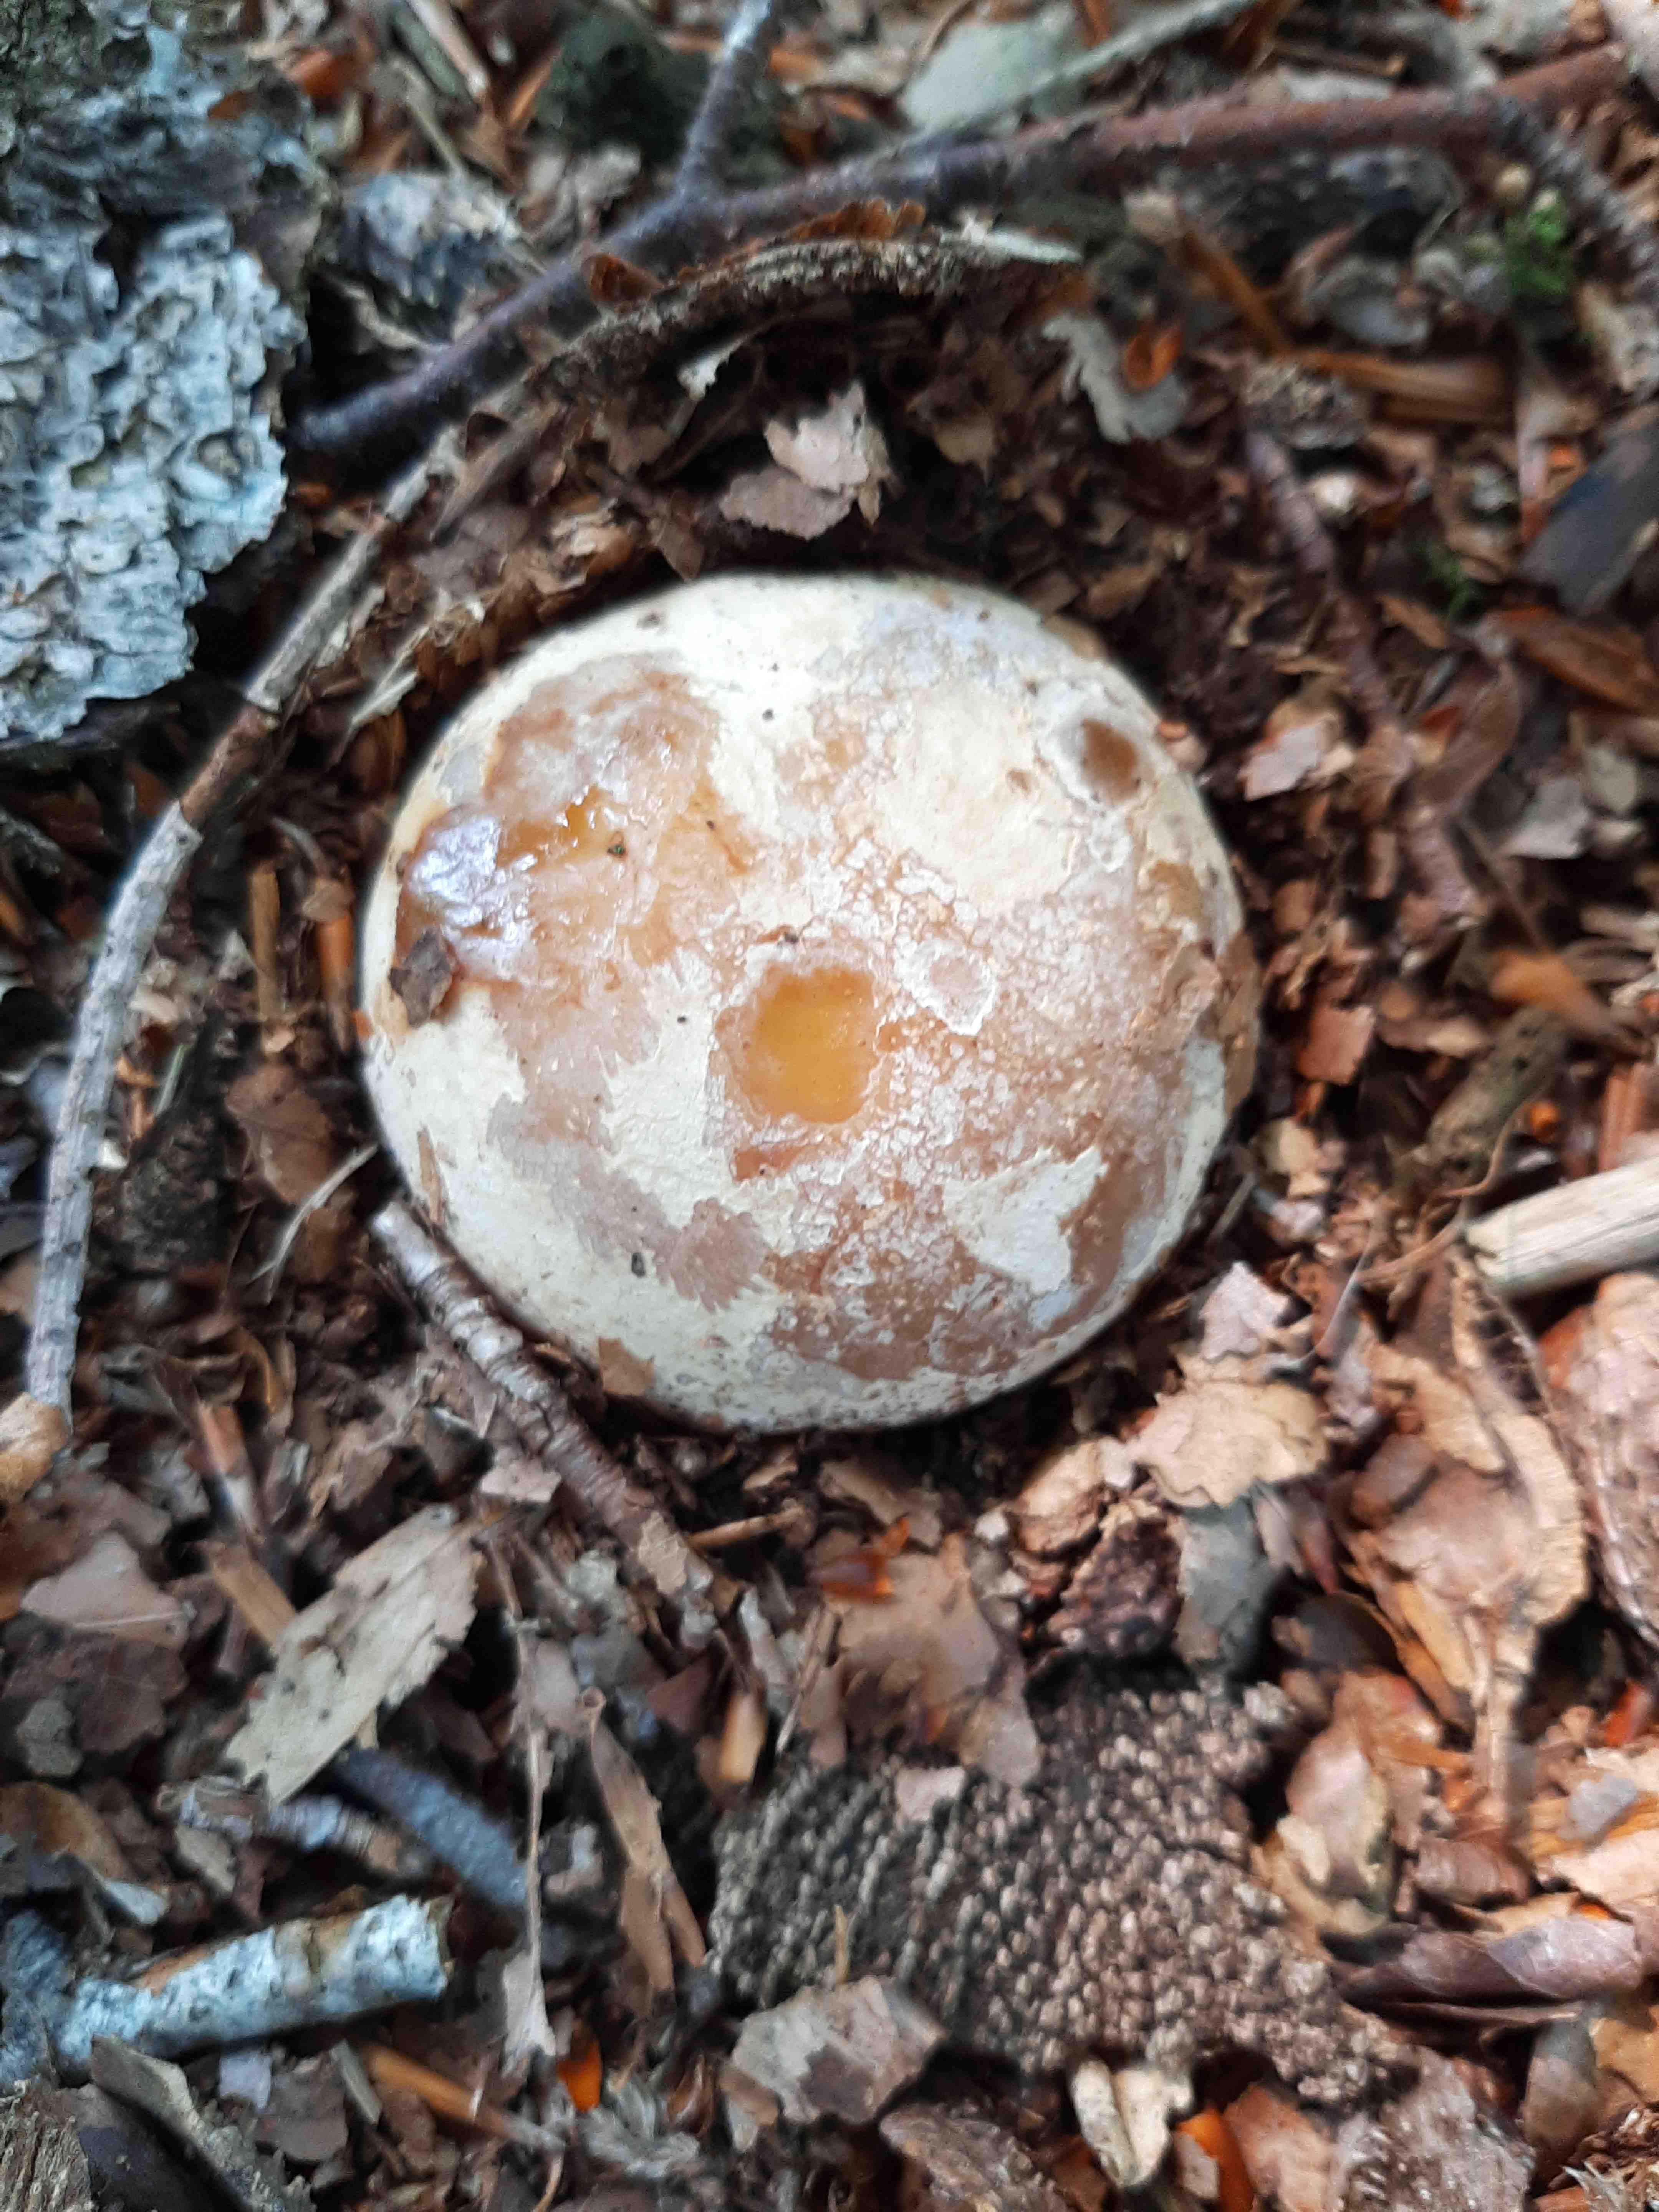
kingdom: Fungi
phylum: Basidiomycota
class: Agaricomycetes
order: Phallales
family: Phallaceae
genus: Phallus
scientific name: Phallus impudicus
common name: almindelig stinksvamp
